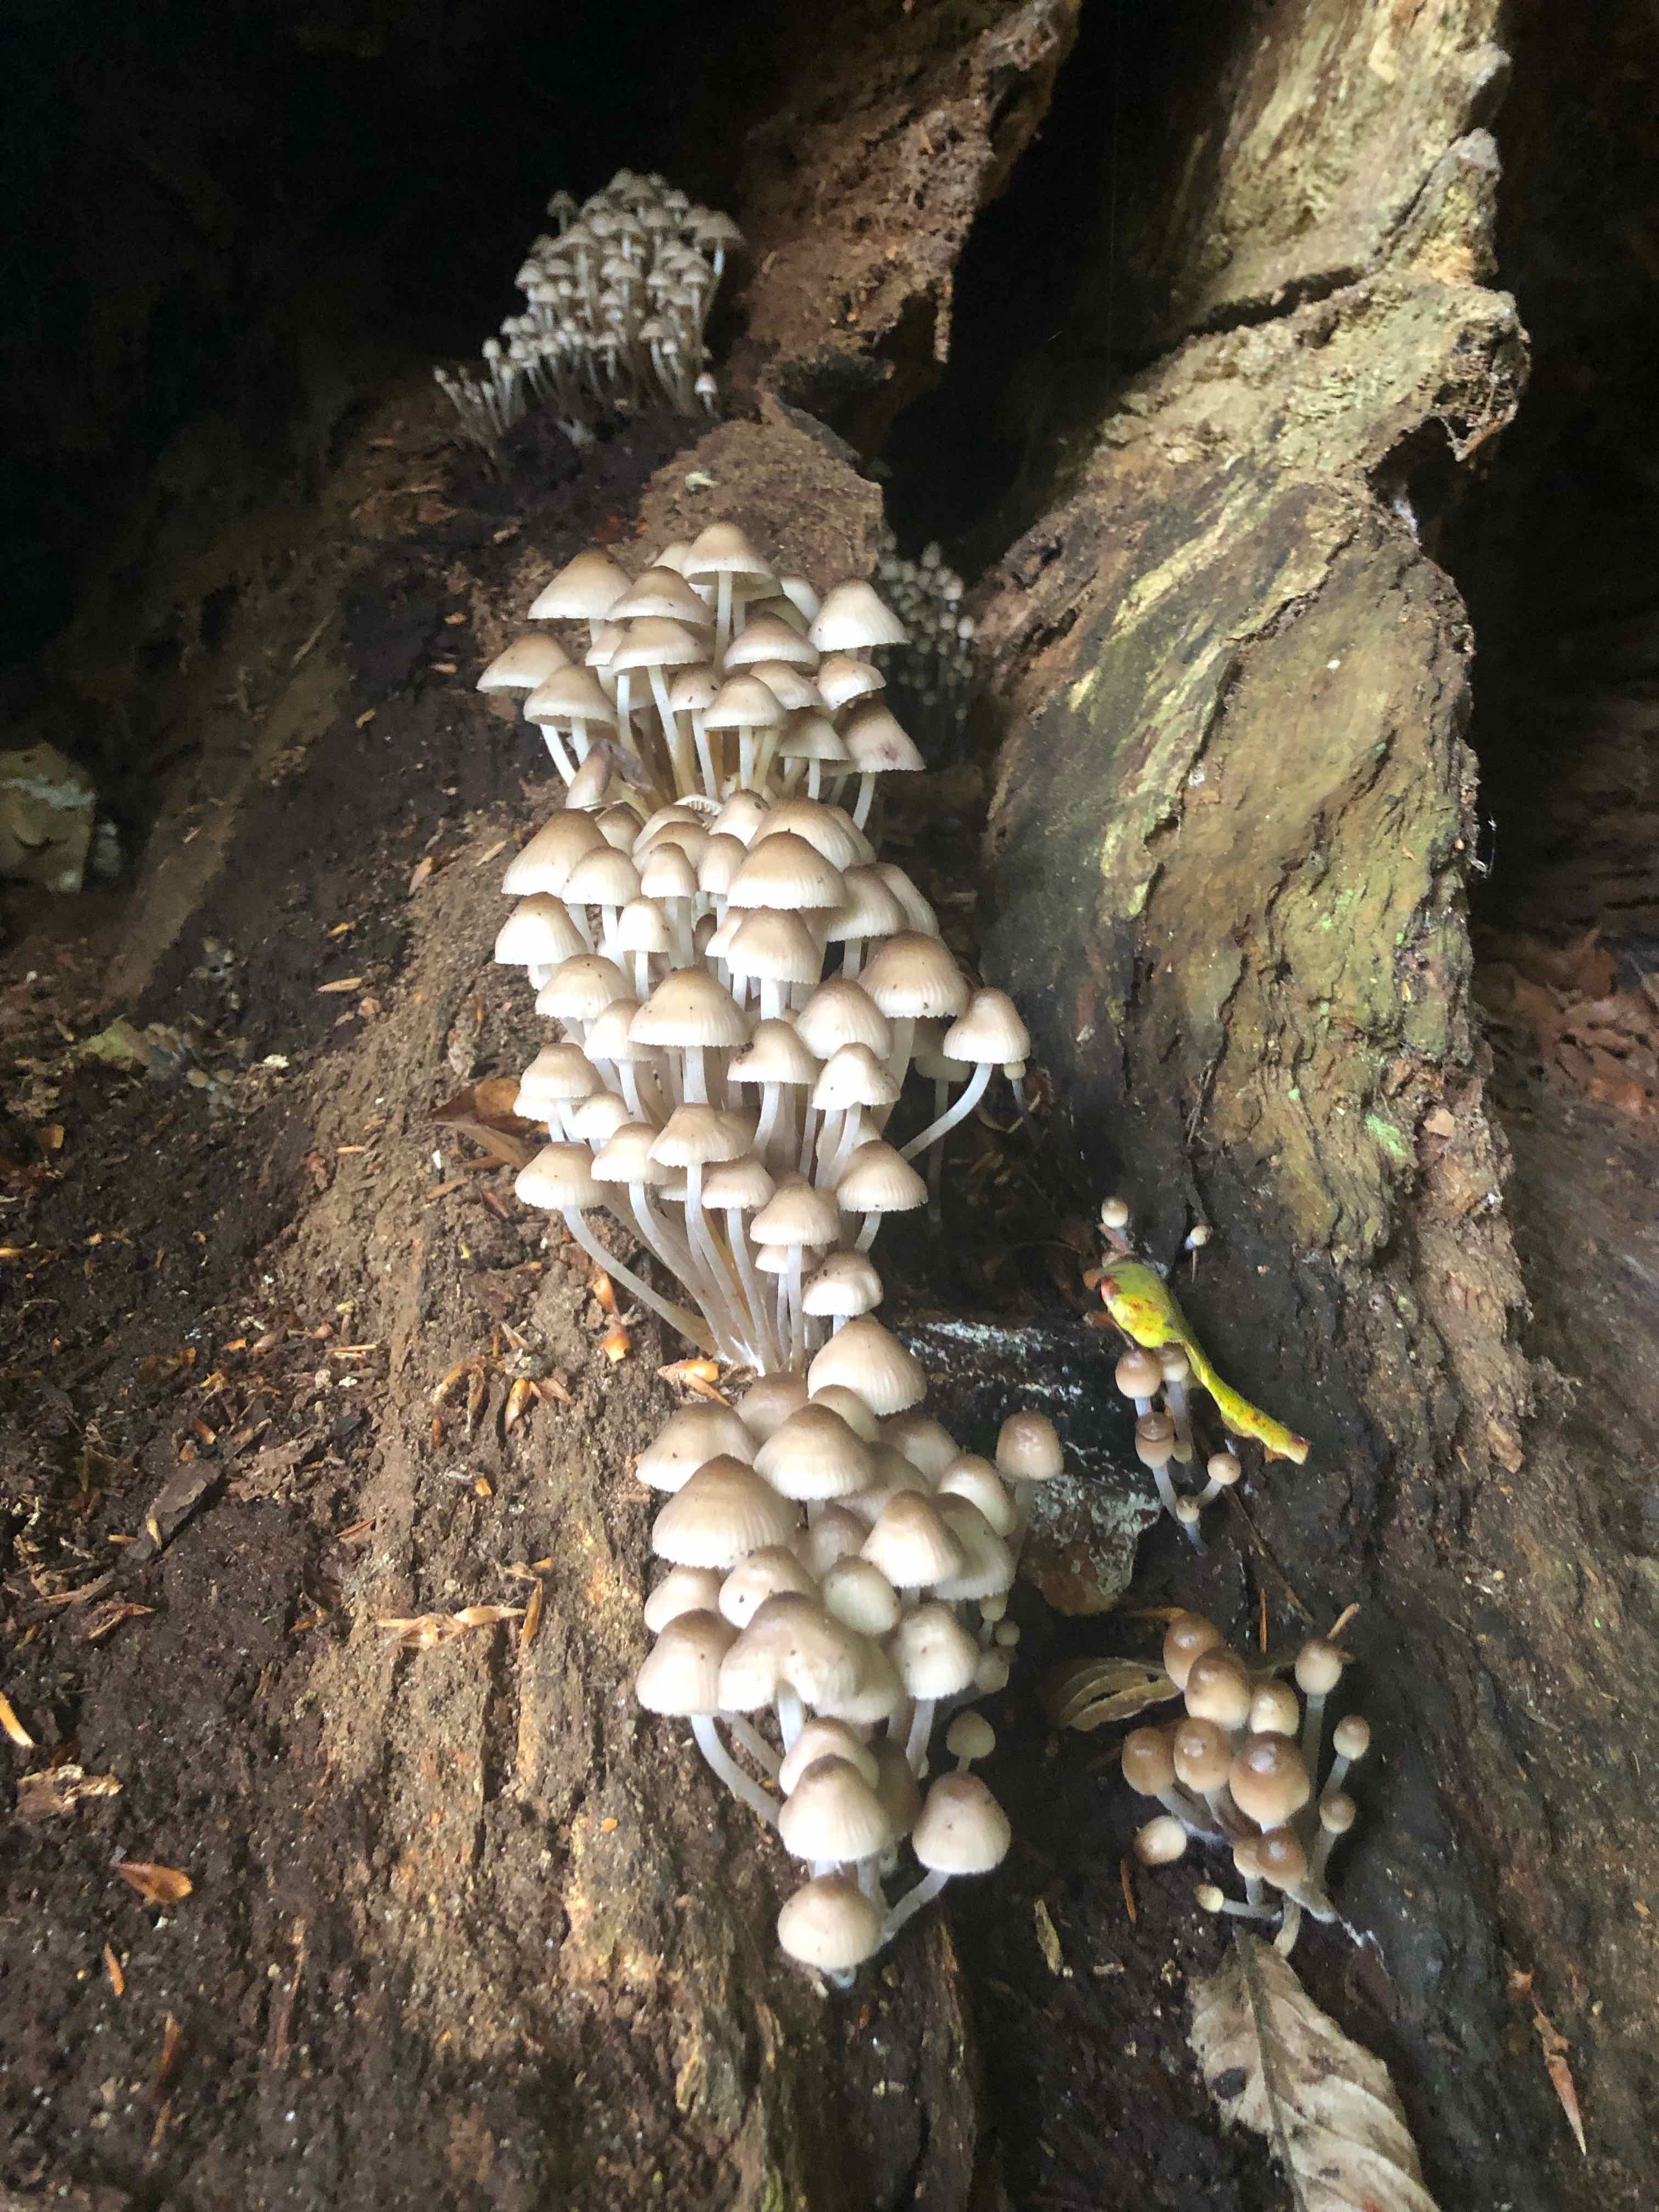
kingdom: Fungi
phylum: Basidiomycota
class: Agaricomycetes
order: Agaricales
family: Mycenaceae
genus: Mycena
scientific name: Mycena inclinata
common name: nikkende huesvamp
